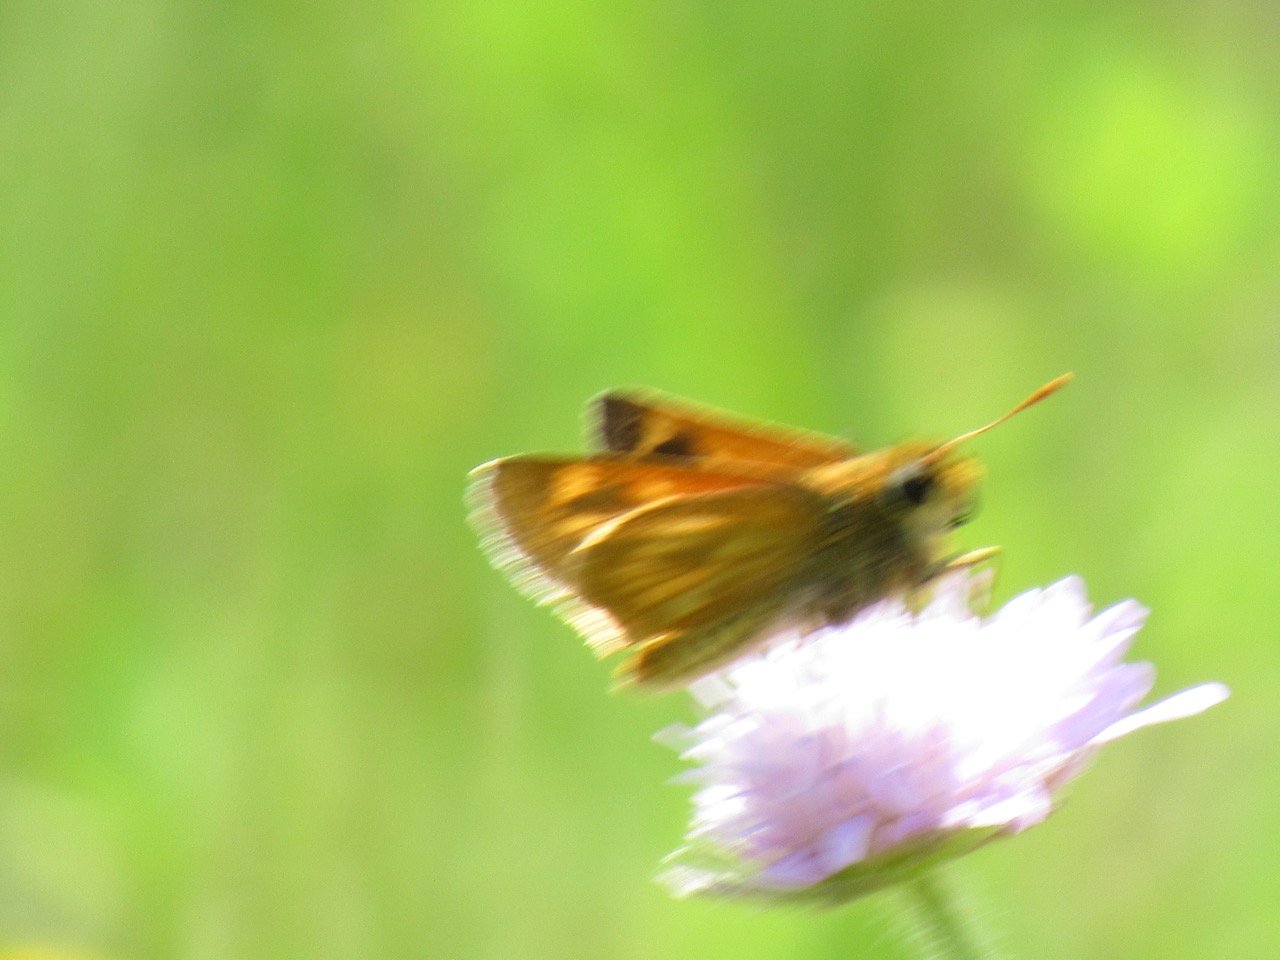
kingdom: Animalia
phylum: Arthropoda
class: Insecta
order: Lepidoptera
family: Hesperiidae
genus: Polites
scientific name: Polites
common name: Long Dash Skipper
